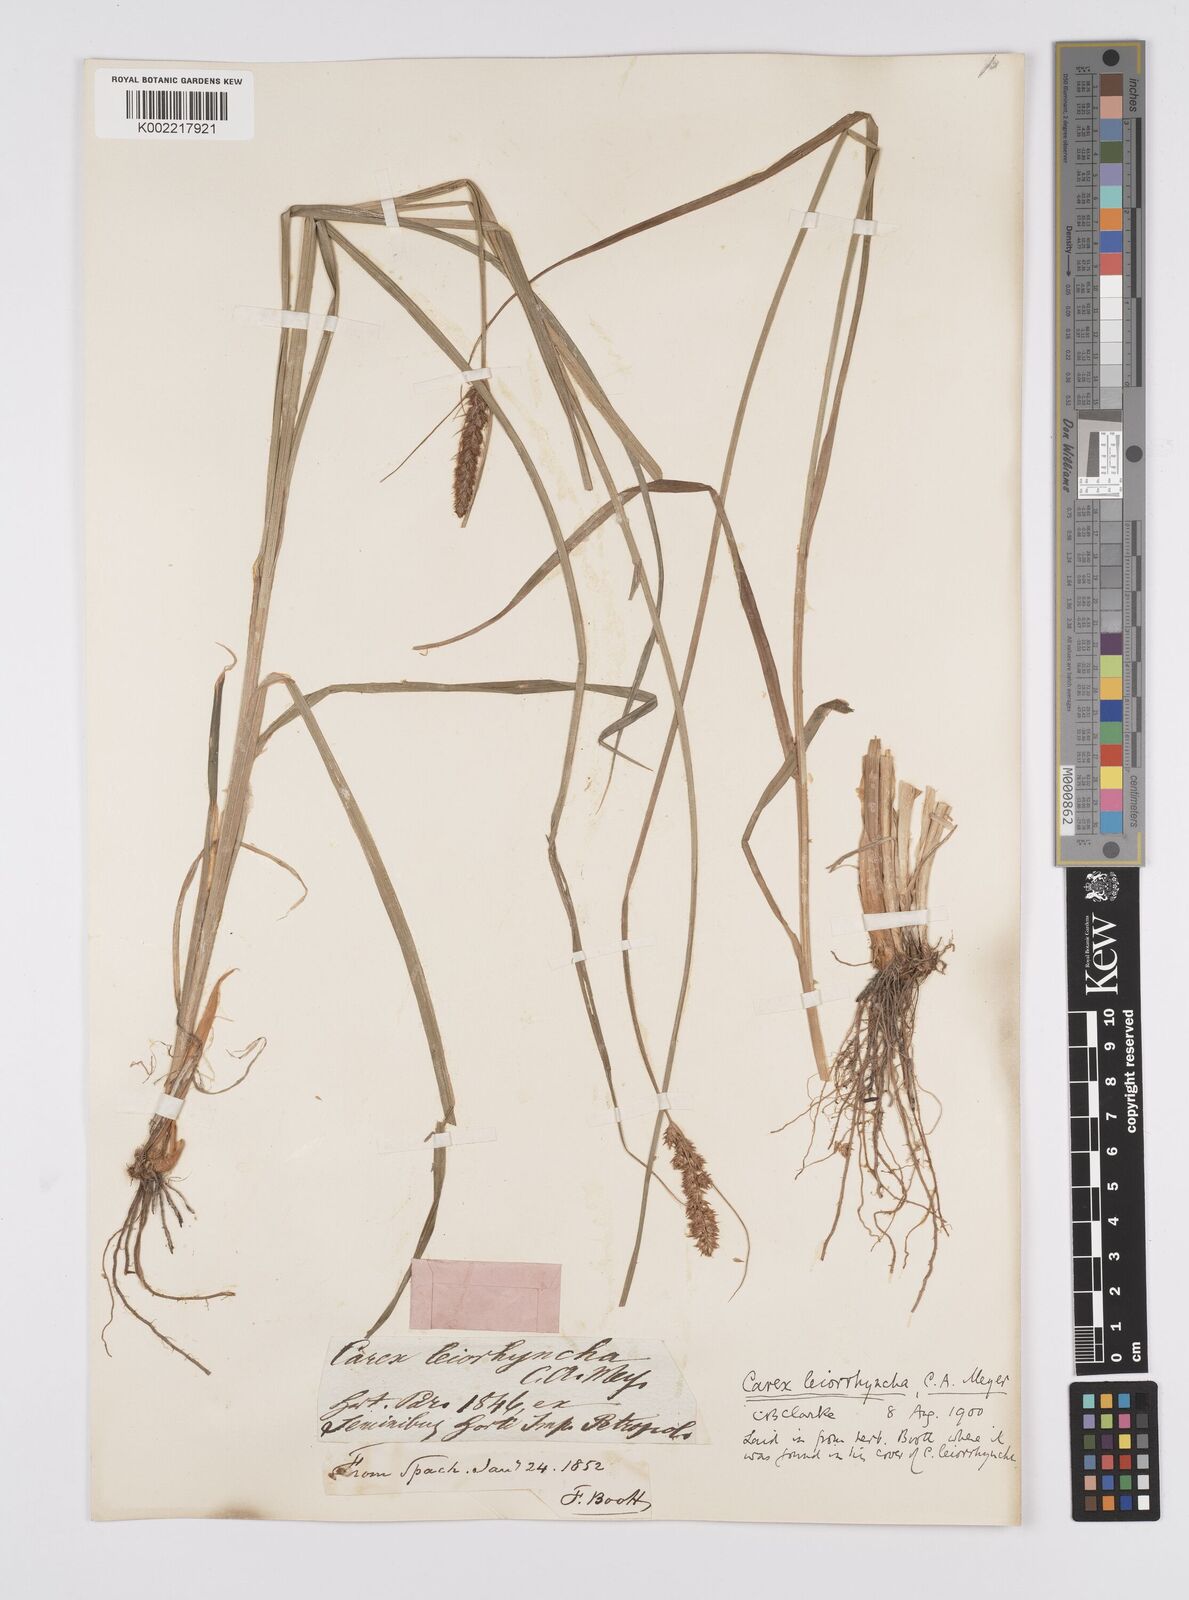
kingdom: Plantae
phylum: Tracheophyta
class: Liliopsida
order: Poales
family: Cyperaceae
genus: Carex
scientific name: Carex leiorhyncha
